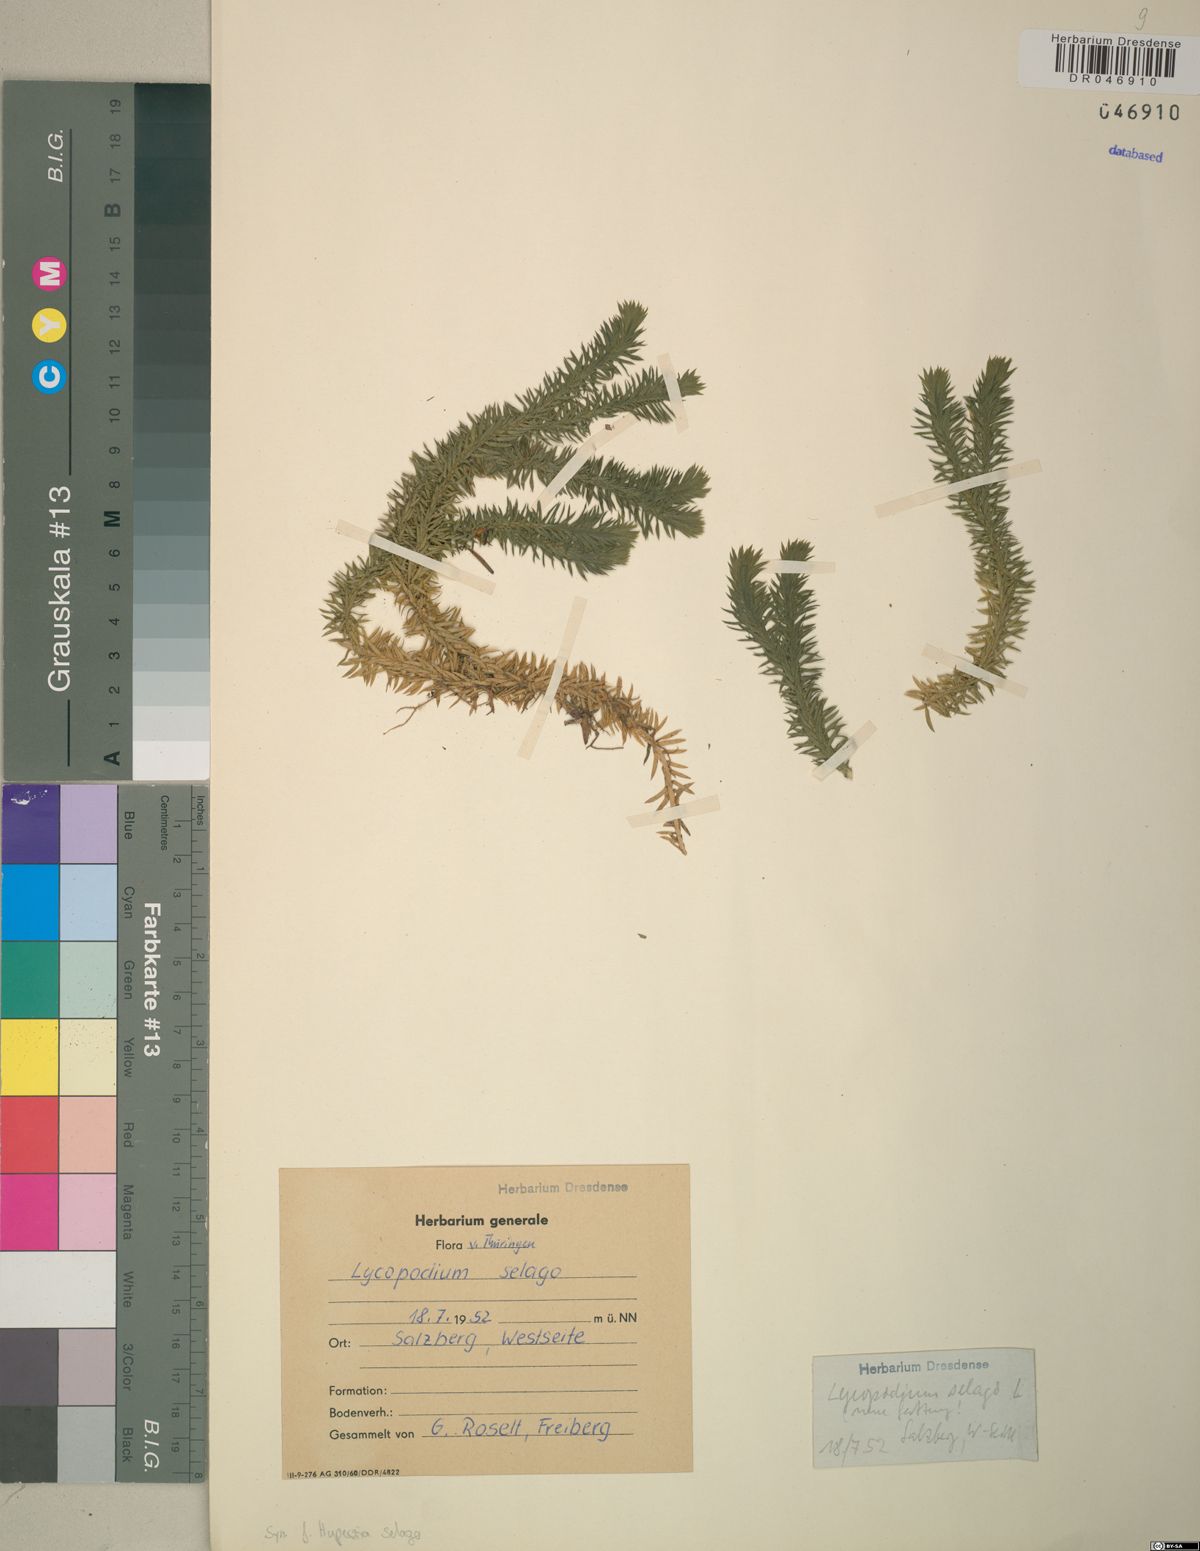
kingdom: Plantae
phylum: Tracheophyta
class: Lycopodiopsida
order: Lycopodiales
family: Lycopodiaceae
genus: Huperzia
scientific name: Huperzia selago
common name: Northern firmoss
